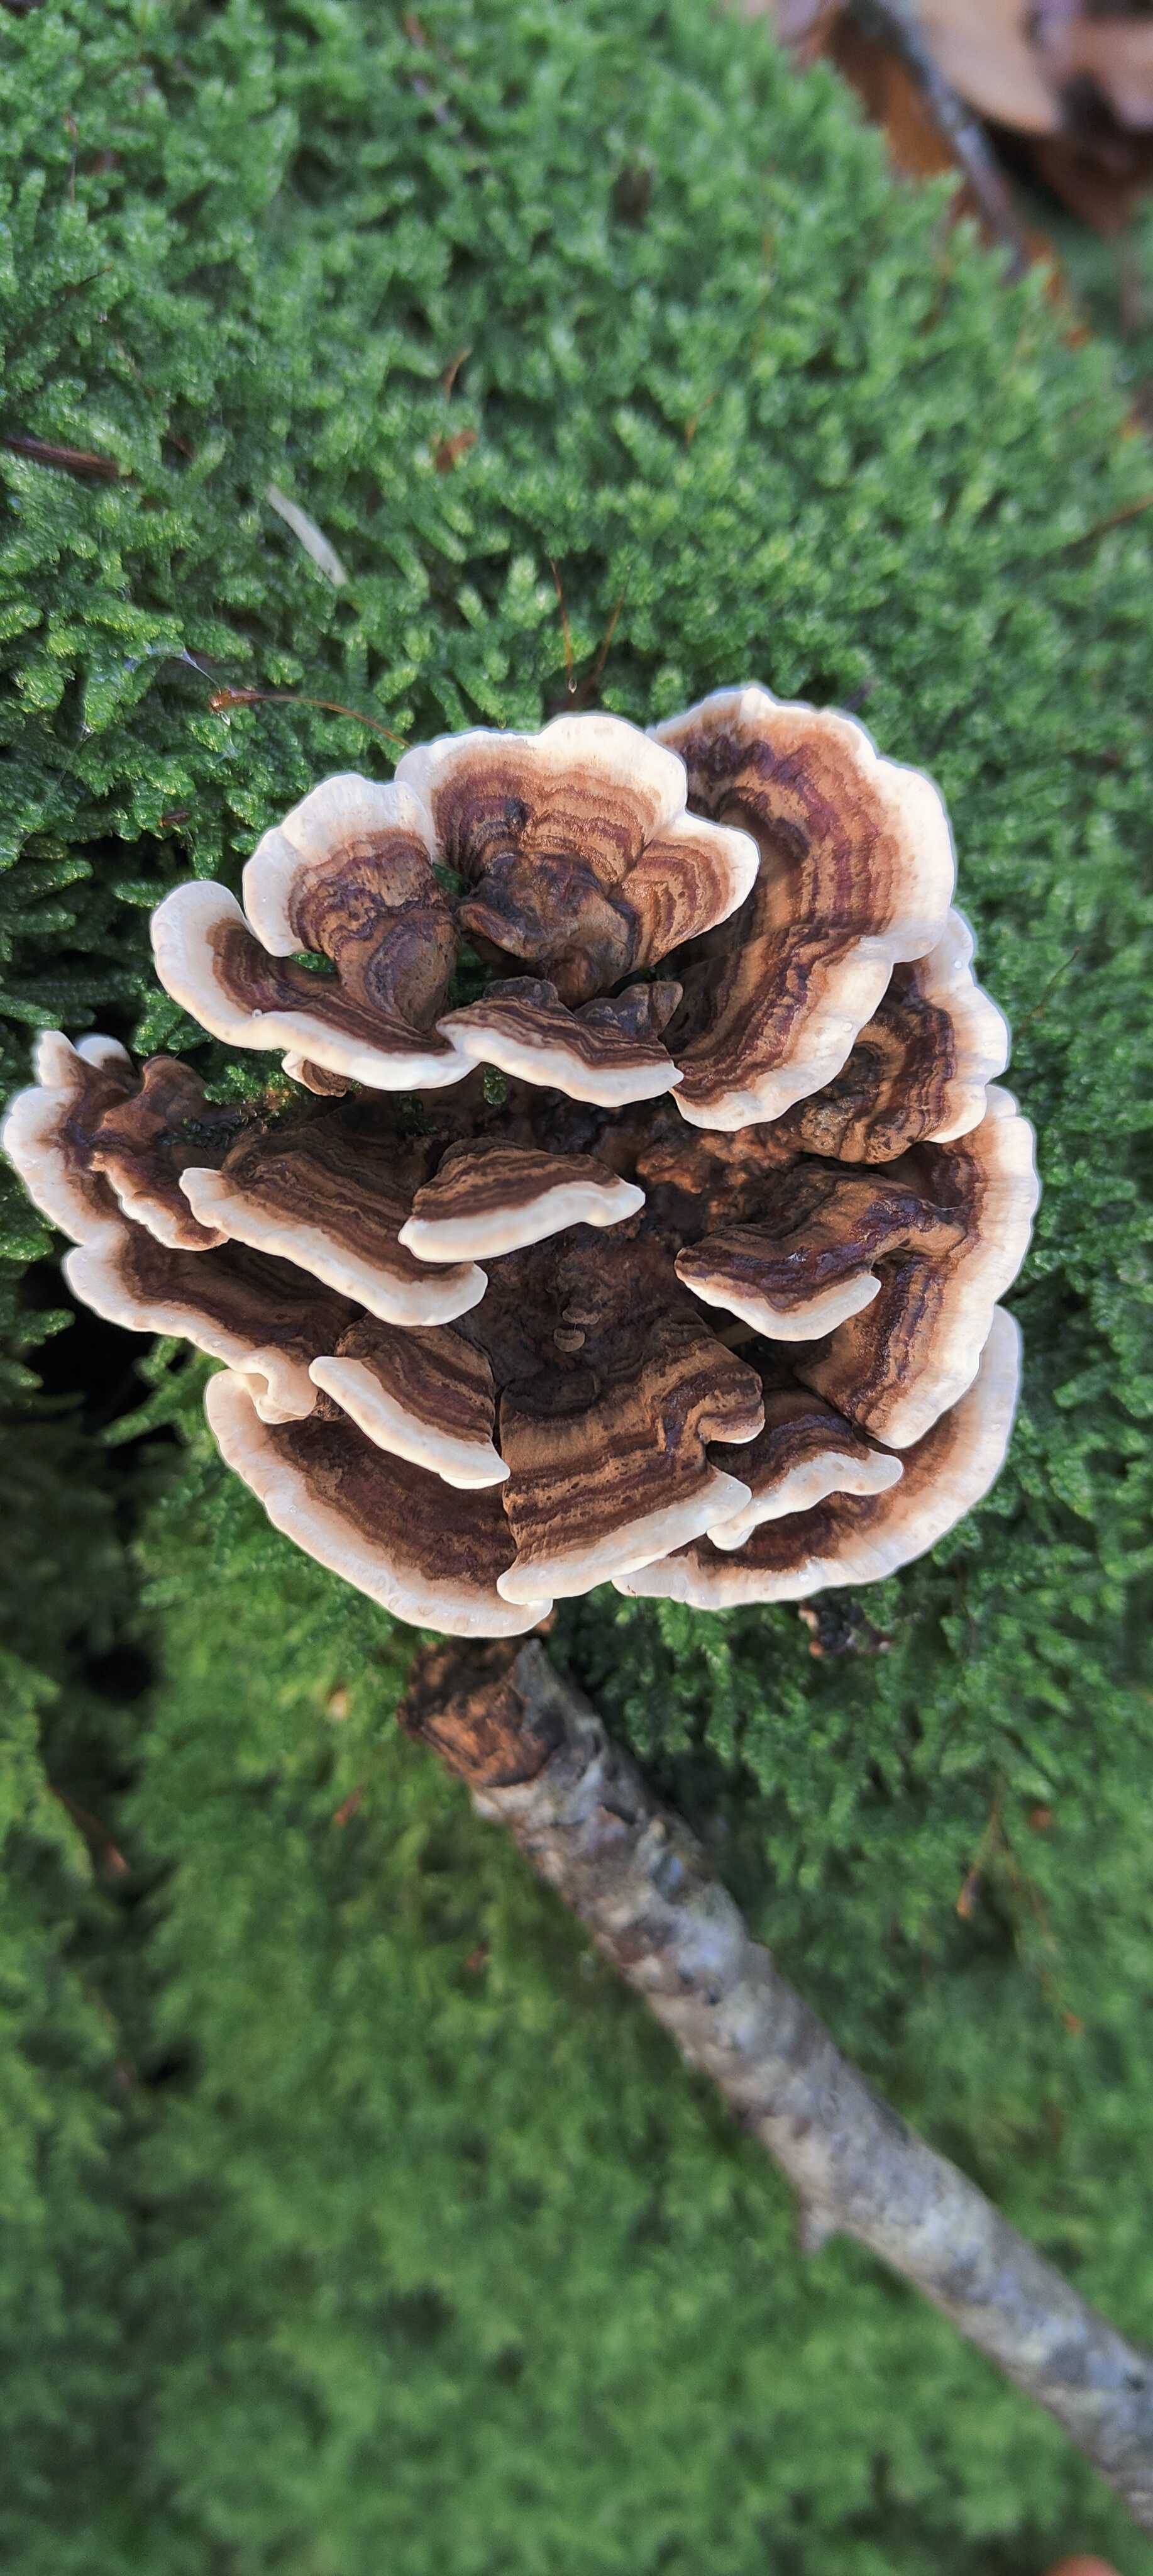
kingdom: Fungi
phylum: Basidiomycota
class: Agaricomycetes
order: Polyporales
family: Polyporaceae
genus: Trametes
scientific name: Trametes versicolor
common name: broget læderporesvamp
